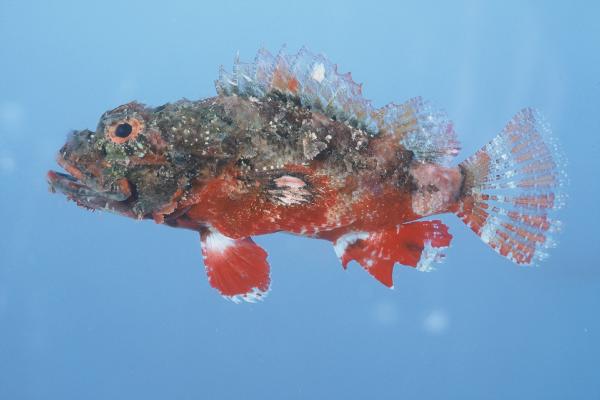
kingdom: Animalia
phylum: Chordata
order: Scorpaeniformes
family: Scorpaenidae
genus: Scorpaenodes
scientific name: Scorpaenodes varipinnis
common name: Blotchfin scorpionfish
